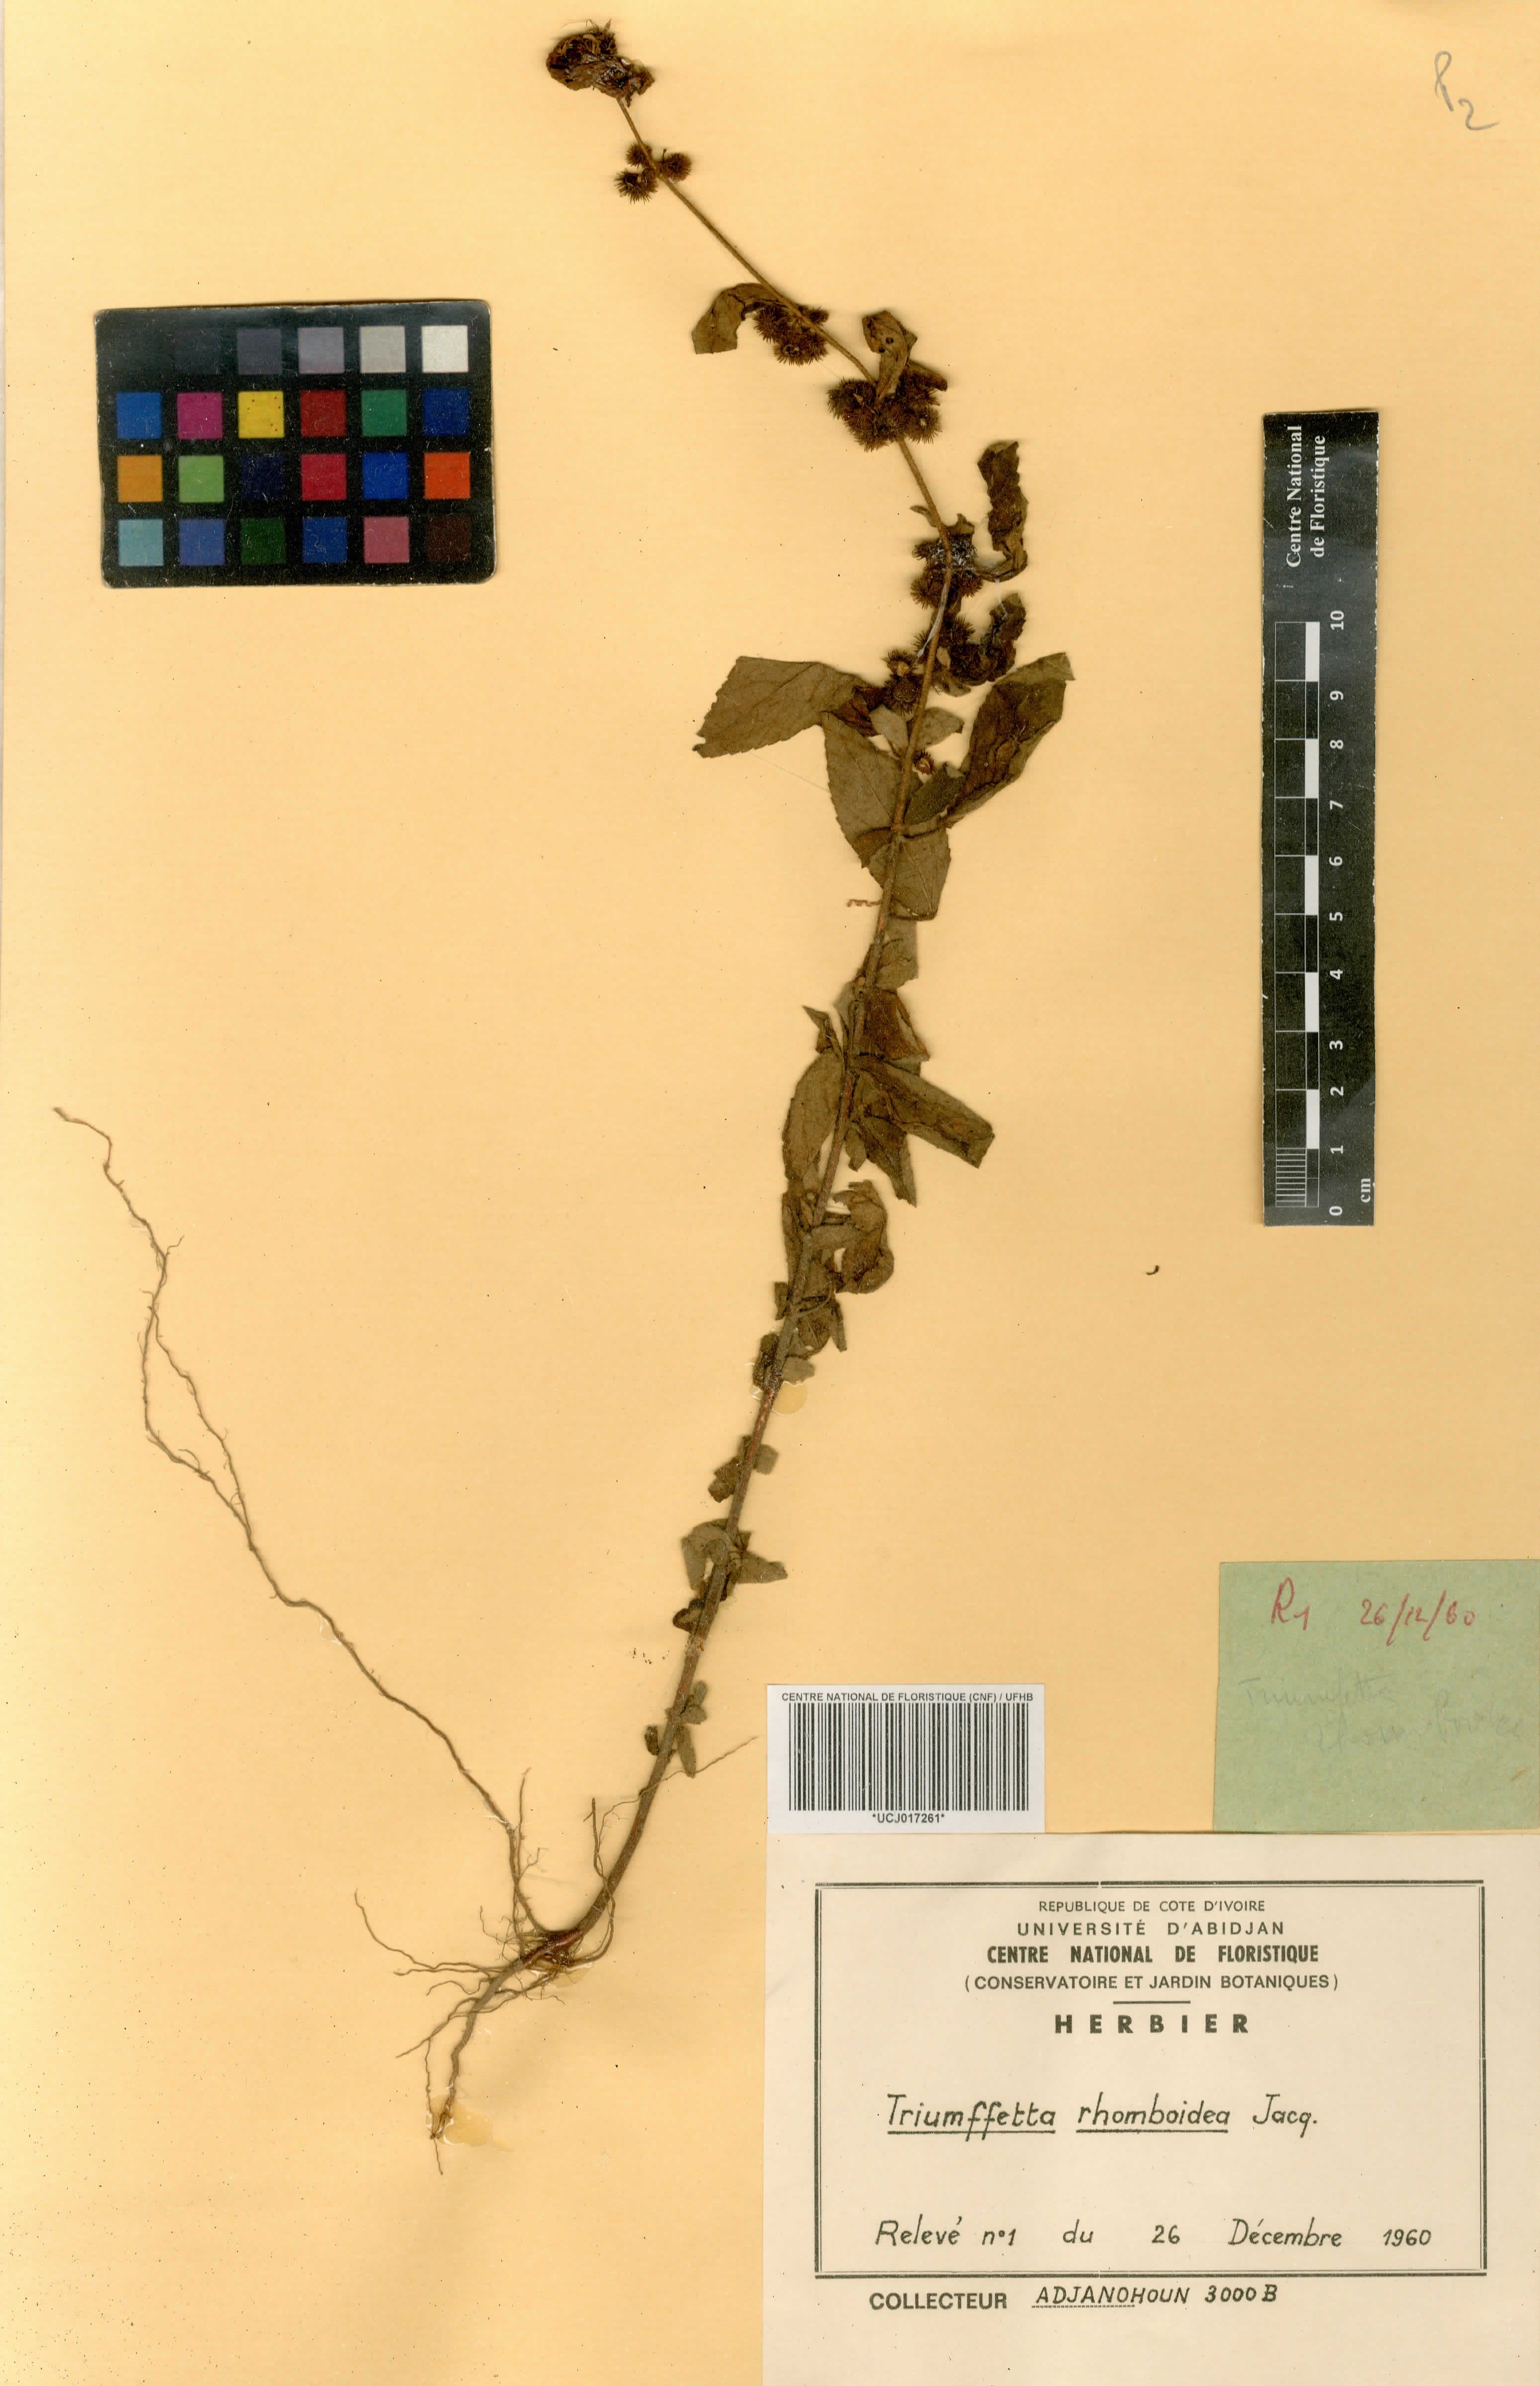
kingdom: Plantae
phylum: Tracheophyta
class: Magnoliopsida
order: Malvales
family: Malvaceae
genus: Triumfetta
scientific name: Triumfetta rhomboidea
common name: Diamond burbark
